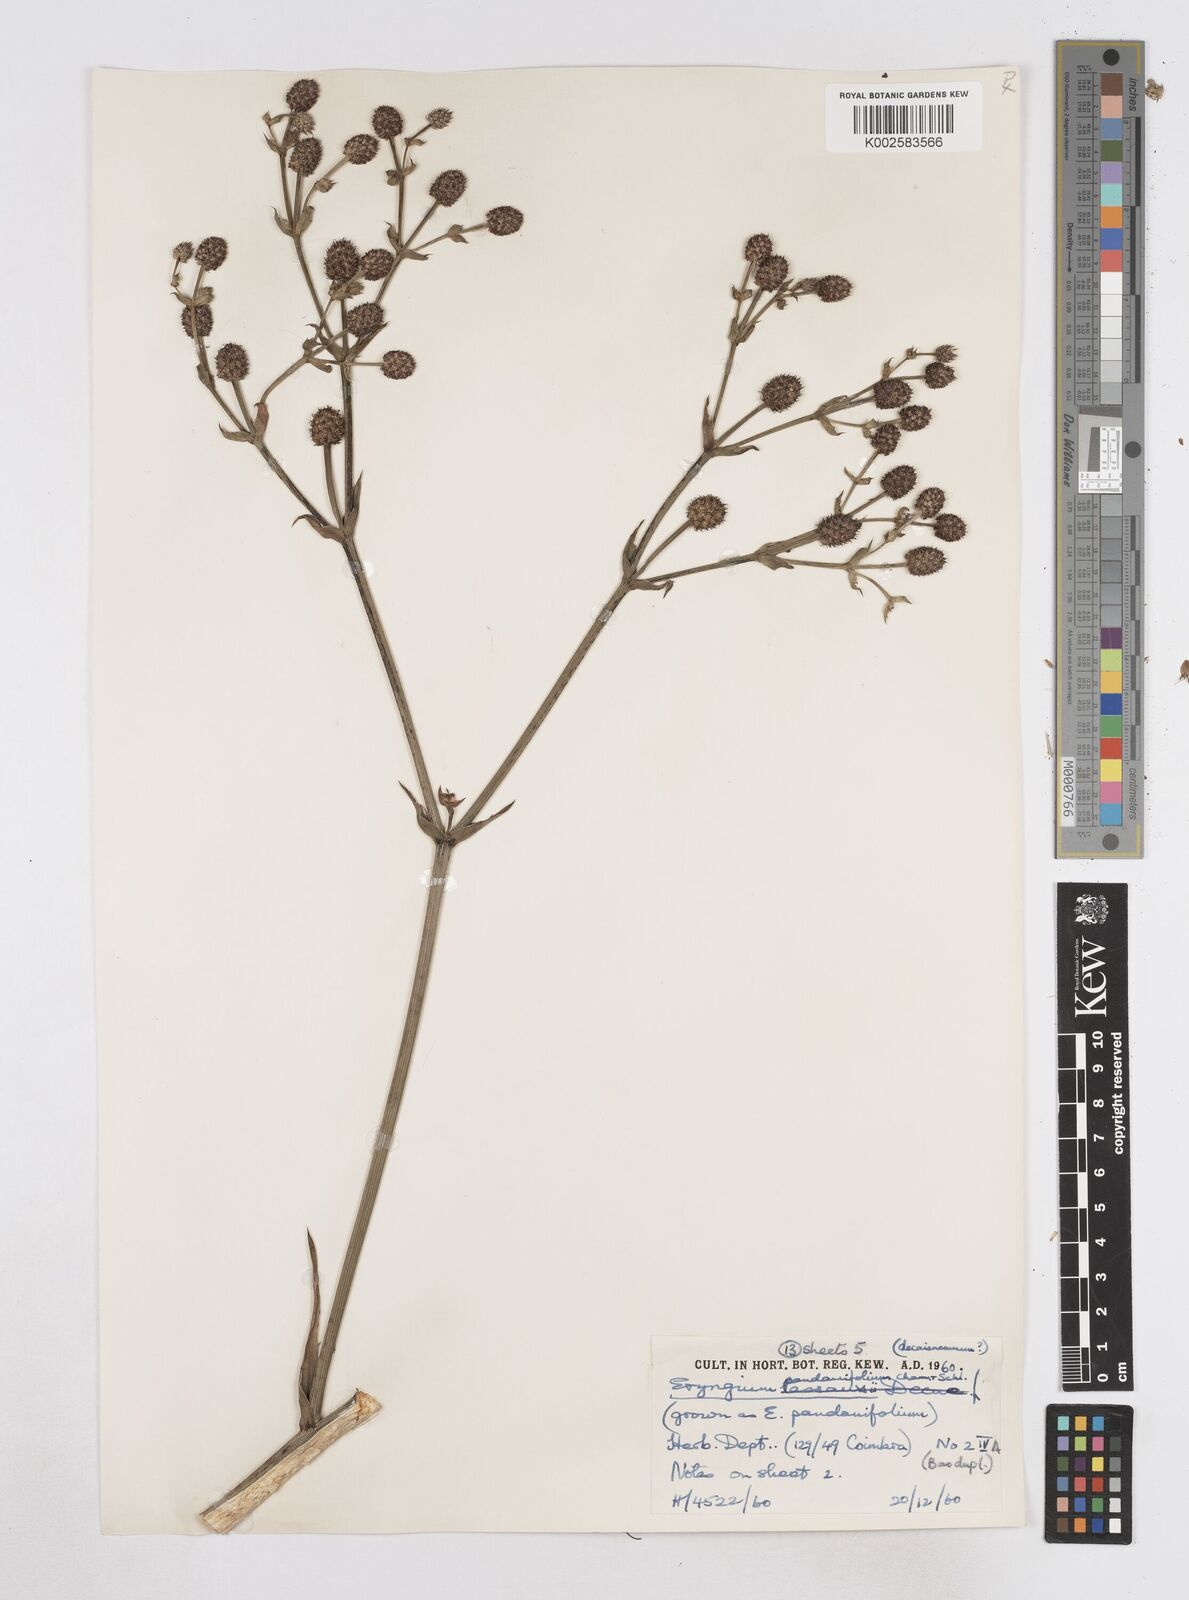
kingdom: Plantae
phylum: Tracheophyta
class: Magnoliopsida
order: Apiales
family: Apiaceae
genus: Eryngium
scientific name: Eryngium pandanifolium
